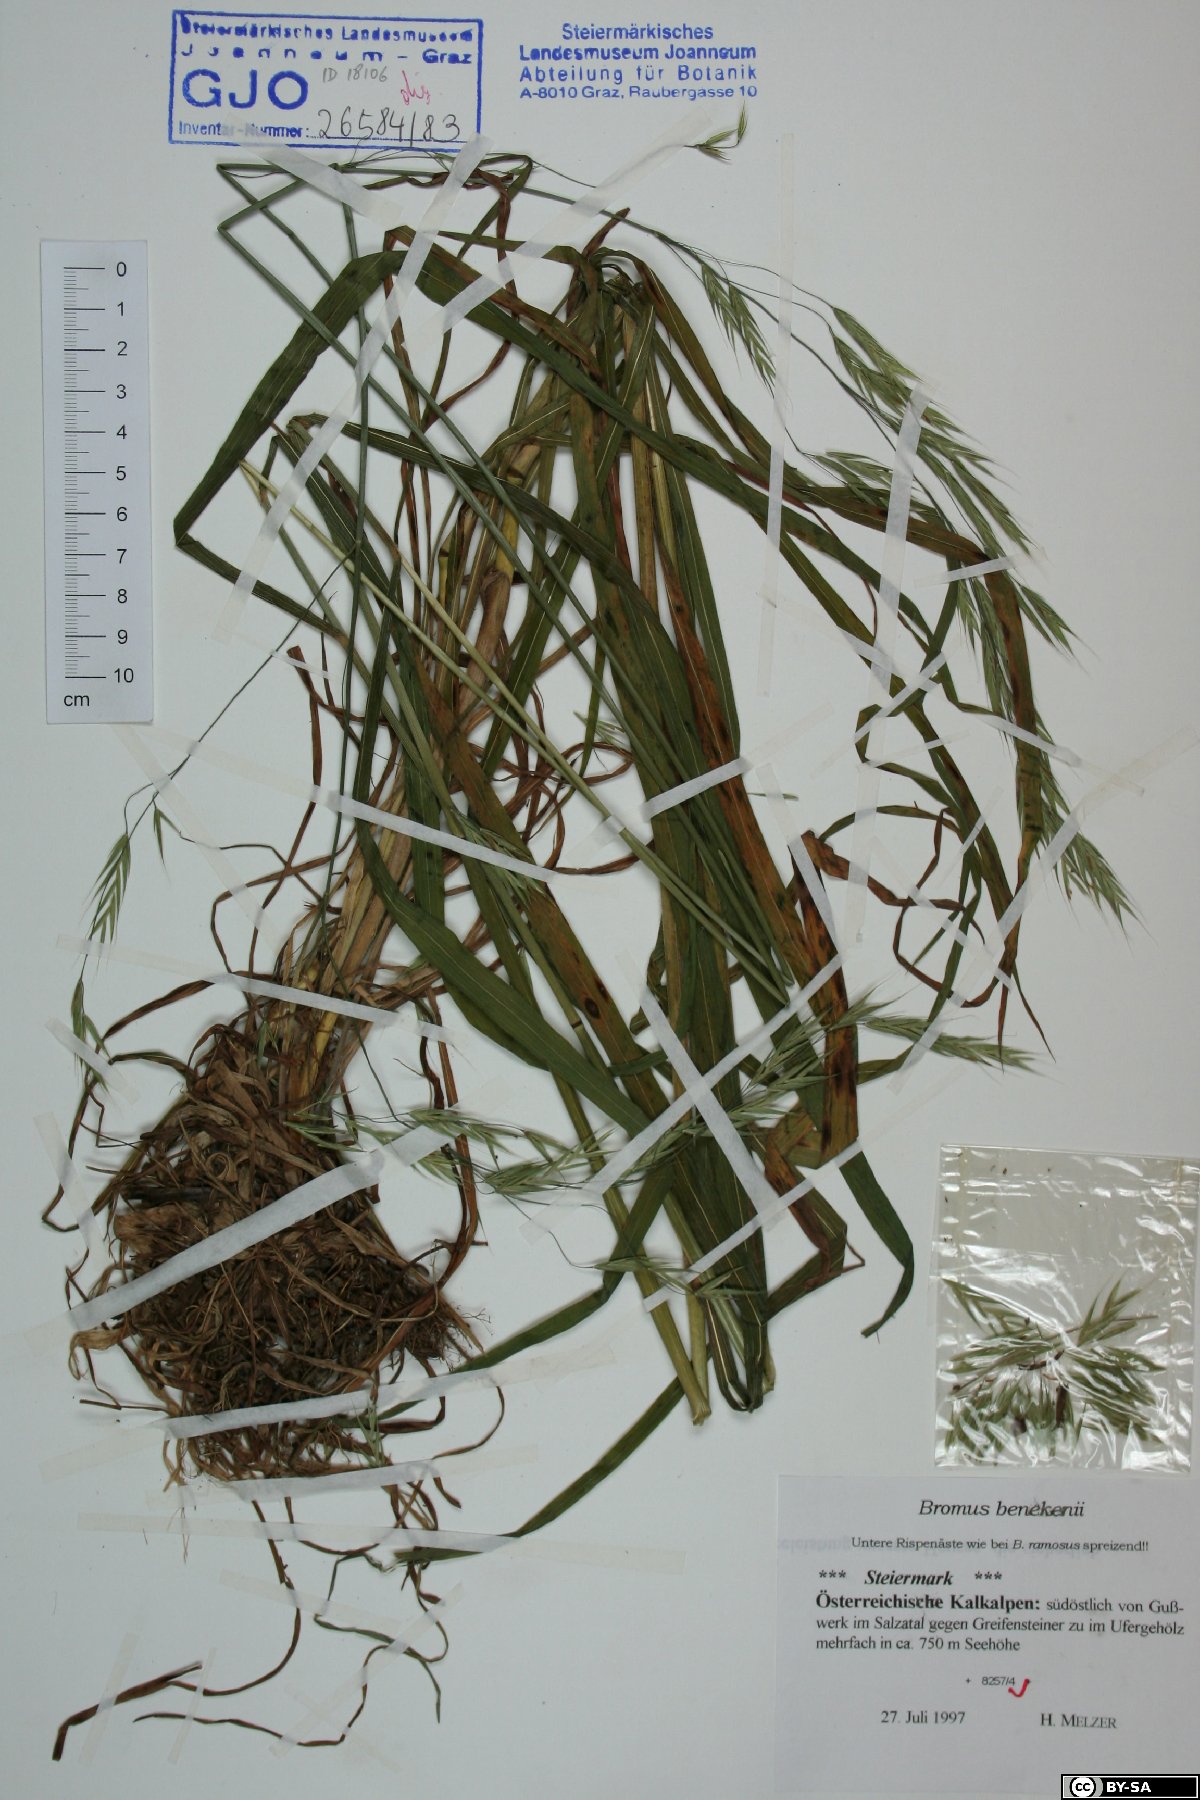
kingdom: Plantae
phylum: Tracheophyta
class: Liliopsida
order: Poales
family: Poaceae
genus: Bromus
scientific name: Bromus benekenii
